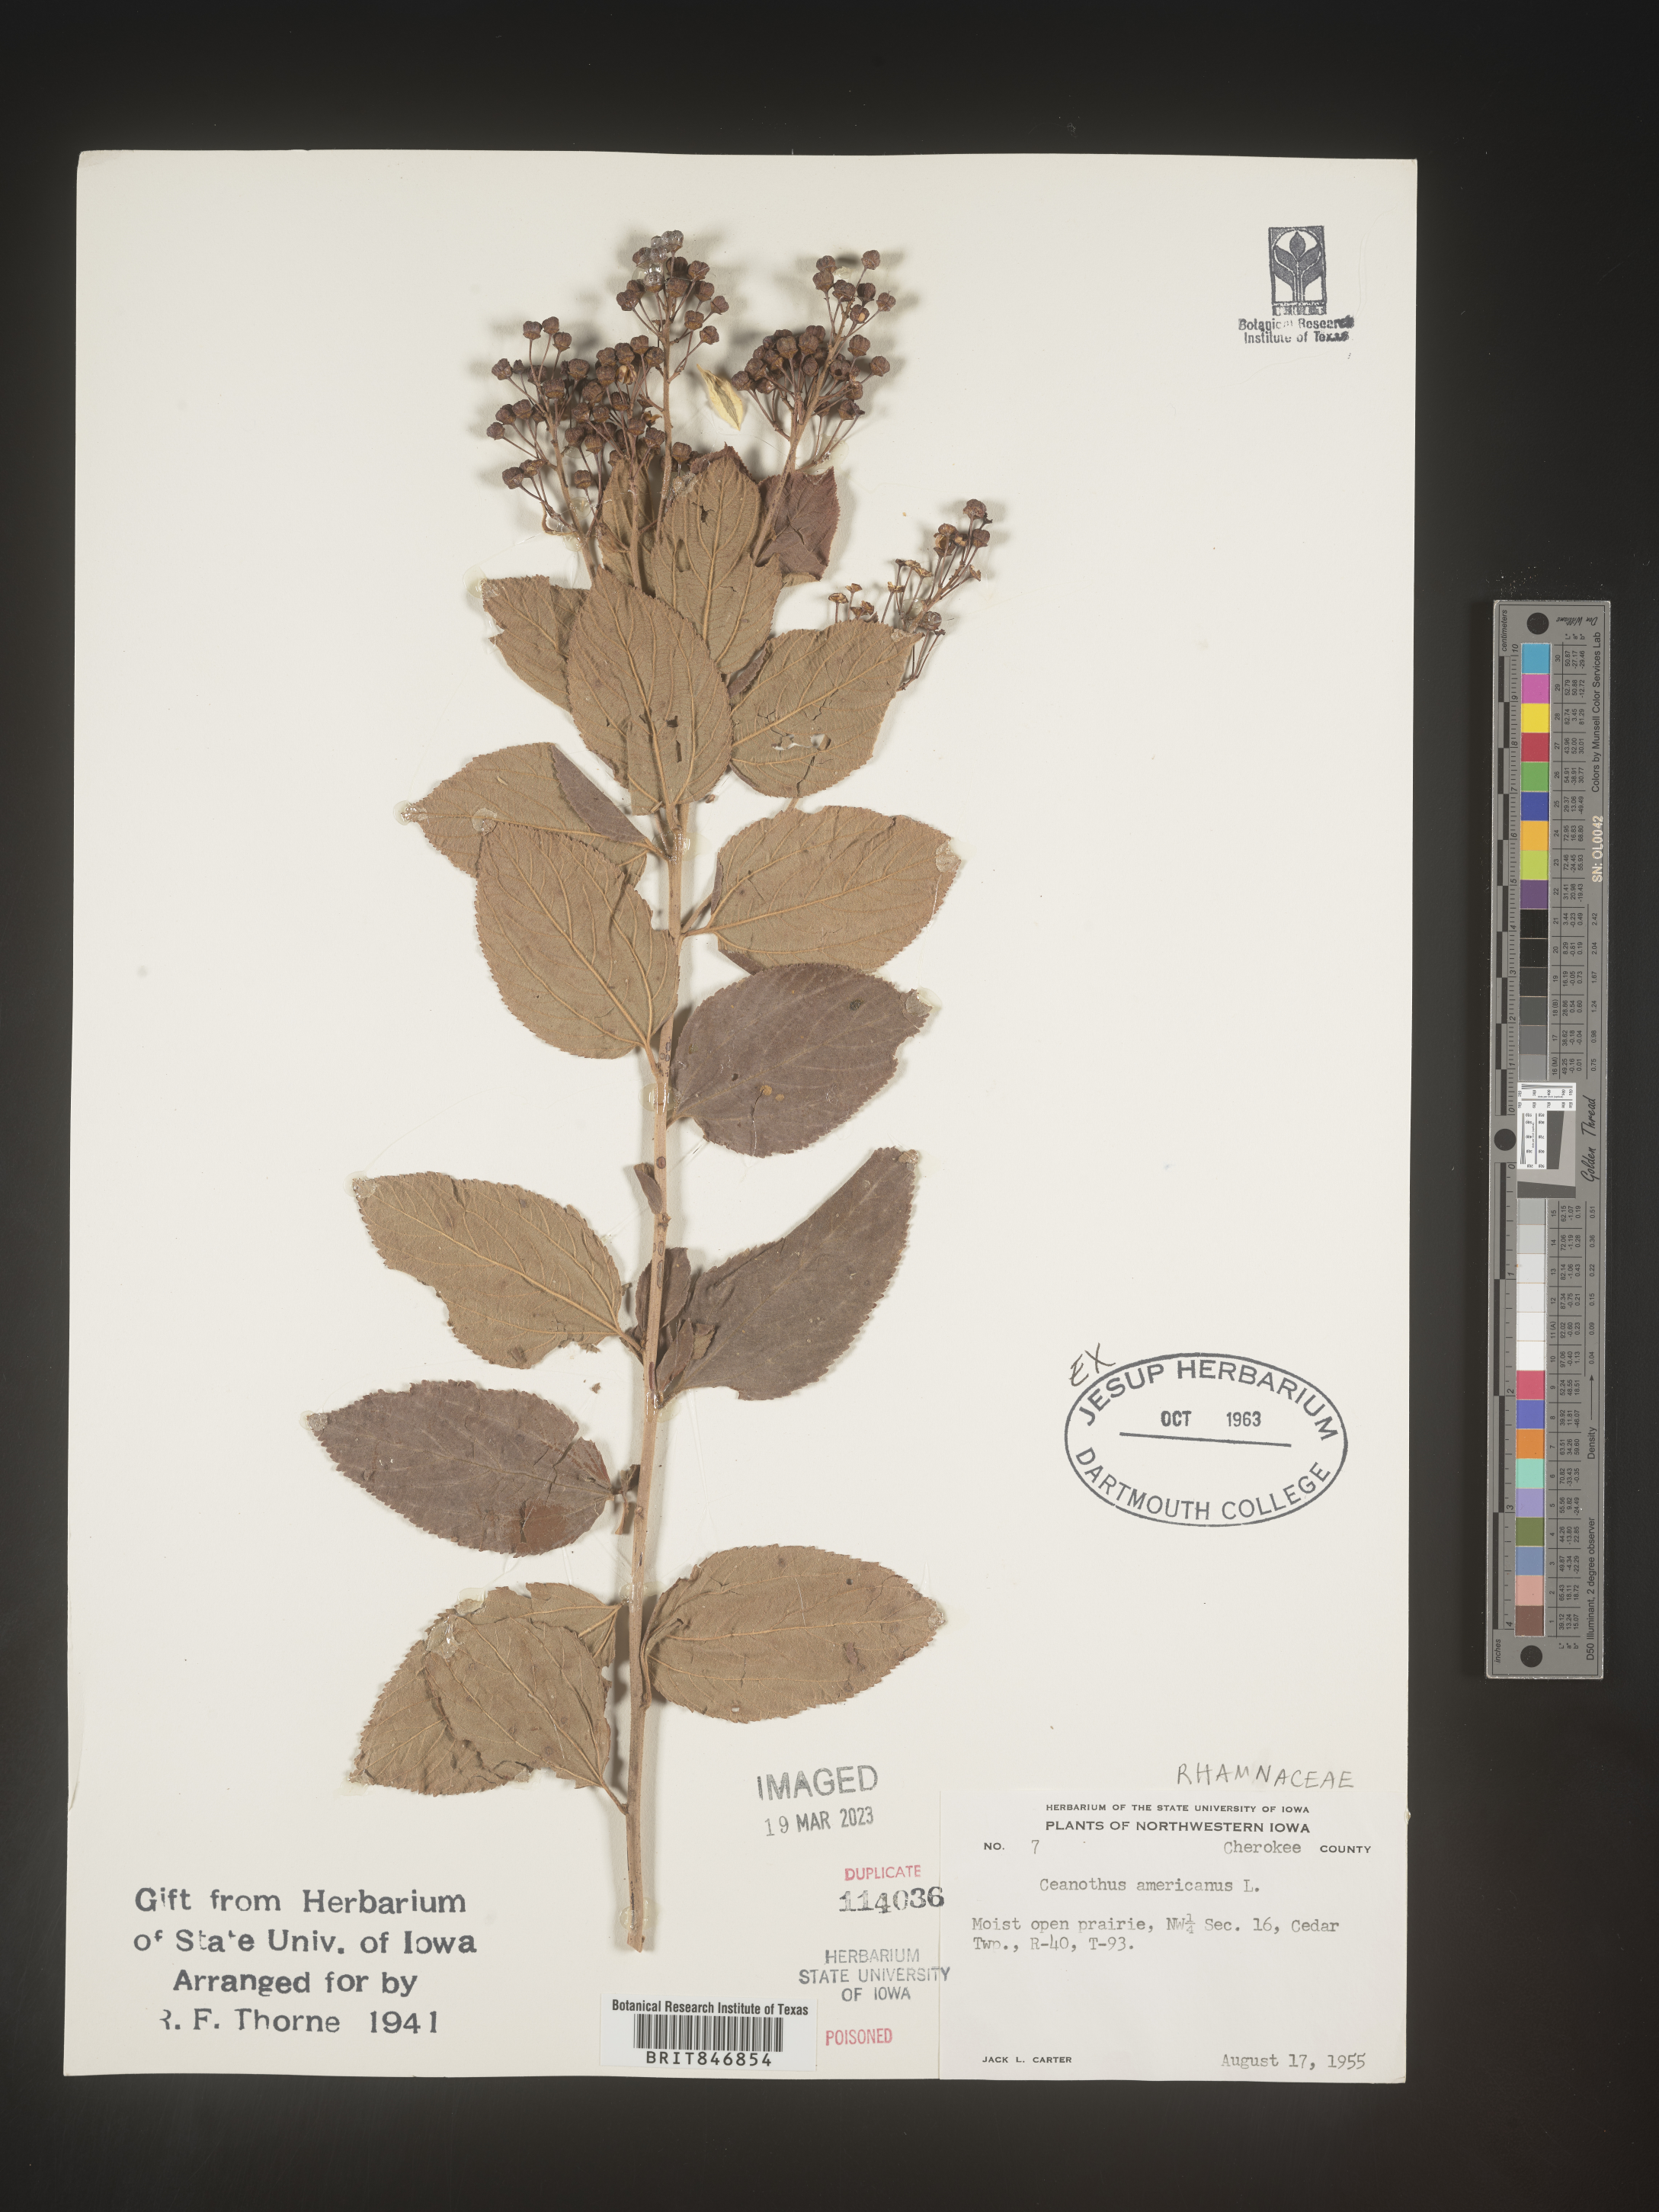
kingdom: Plantae
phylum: Tracheophyta
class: Magnoliopsida
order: Rosales
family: Rhamnaceae
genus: Ceanothus
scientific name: Ceanothus americanus
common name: Redroot
